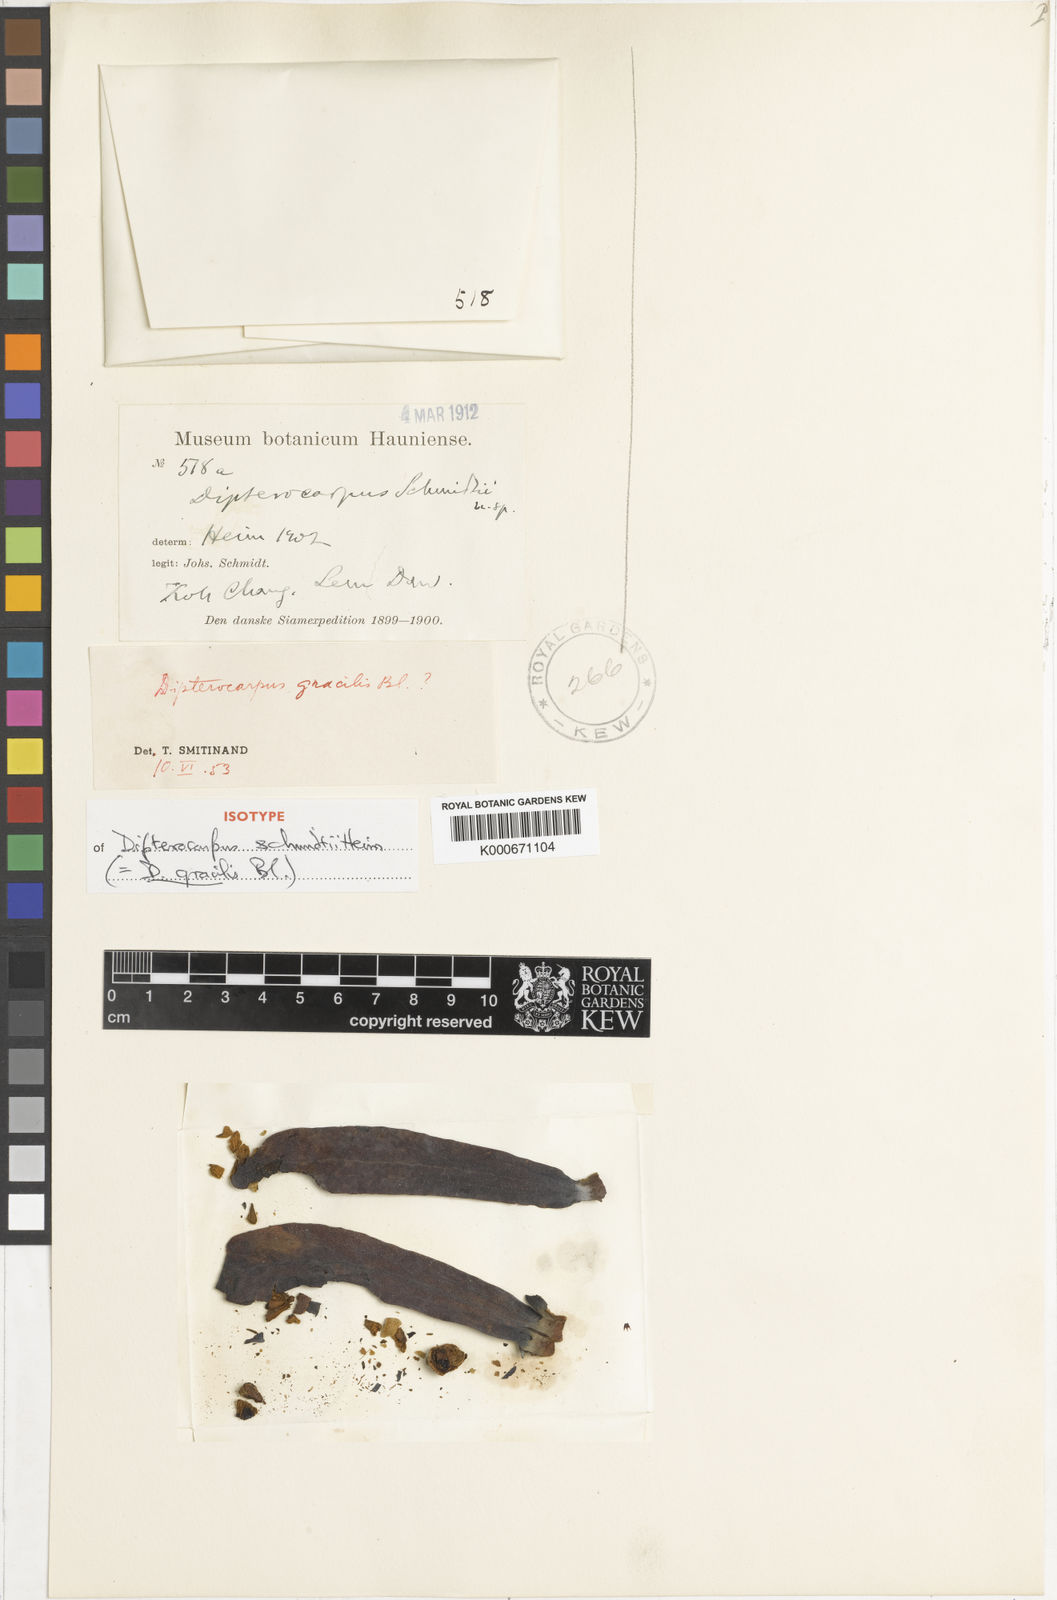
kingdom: Plantae
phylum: Tracheophyta
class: Magnoliopsida
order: Malvales
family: Dipterocarpaceae
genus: Dipterocarpus
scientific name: Dipterocarpus gracilis
